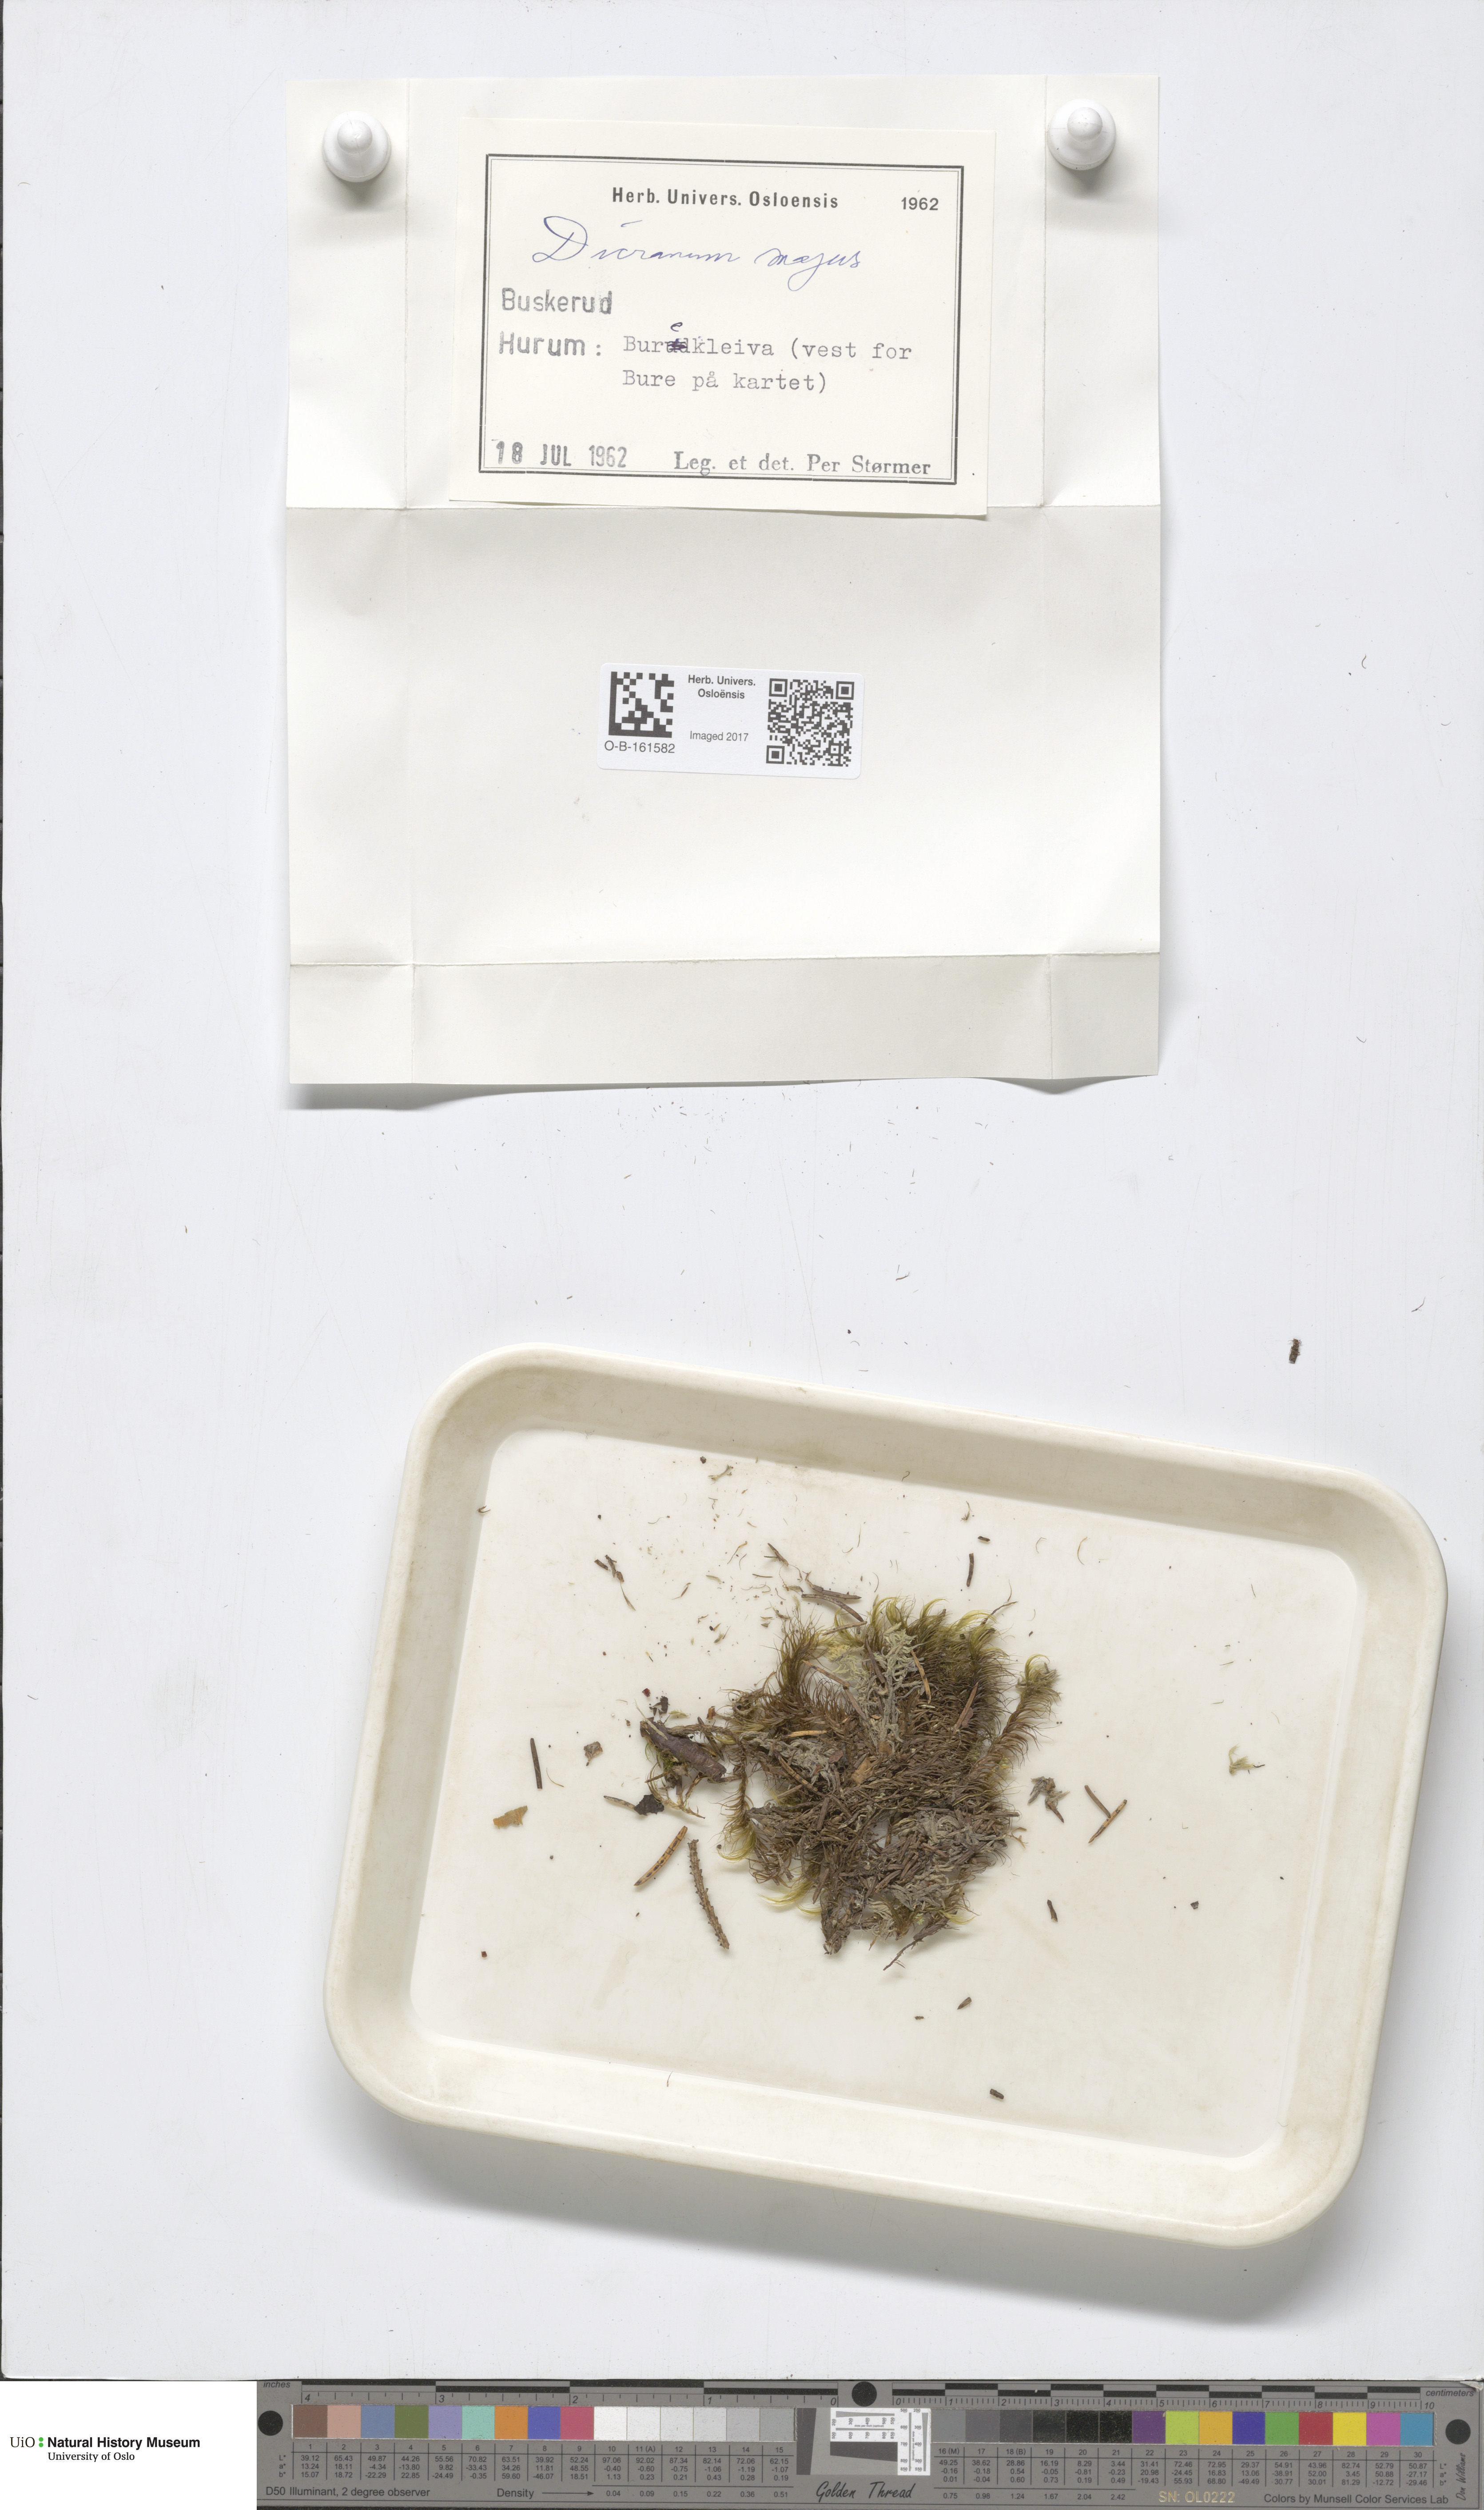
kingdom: Plantae
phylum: Bryophyta
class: Bryopsida
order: Dicranales
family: Dicranaceae
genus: Dicranum
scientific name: Dicranum majus
